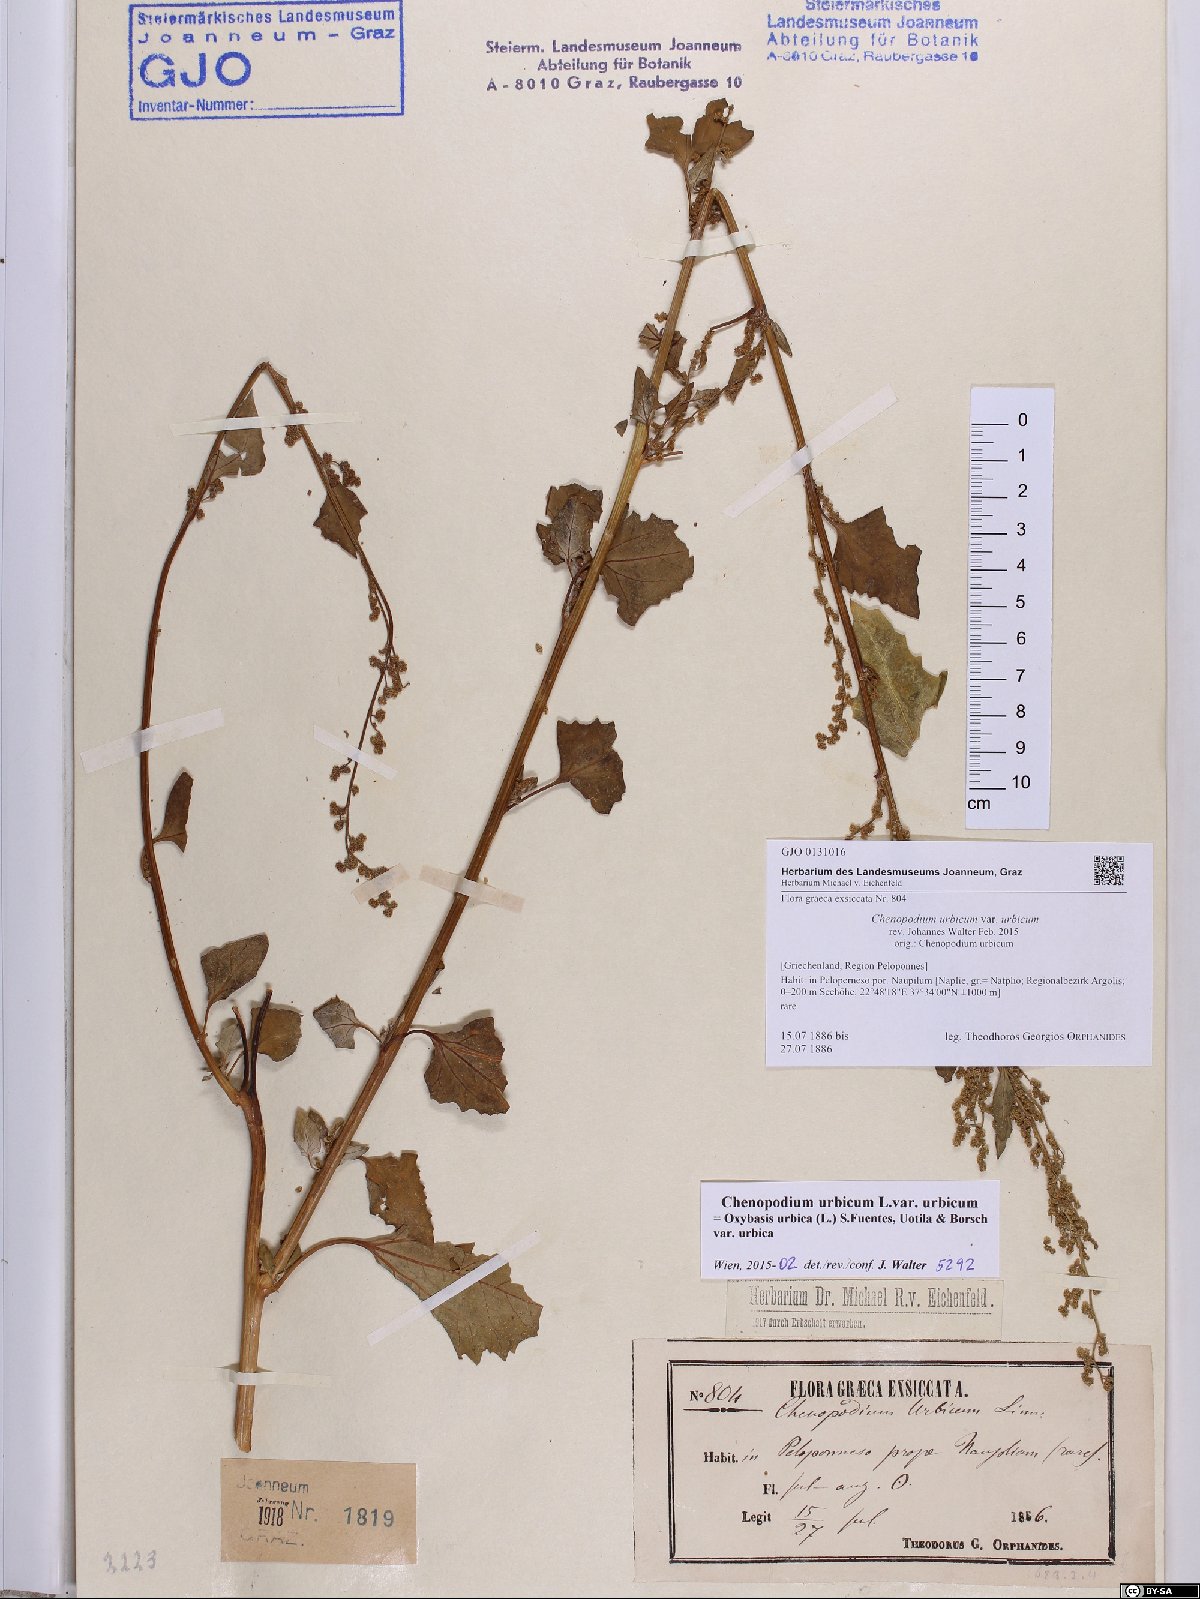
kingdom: Plantae
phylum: Tracheophyta
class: Magnoliopsida
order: Caryophyllales
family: Amaranthaceae
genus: Oxybasis
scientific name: Oxybasis urbica
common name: City goosefoot
